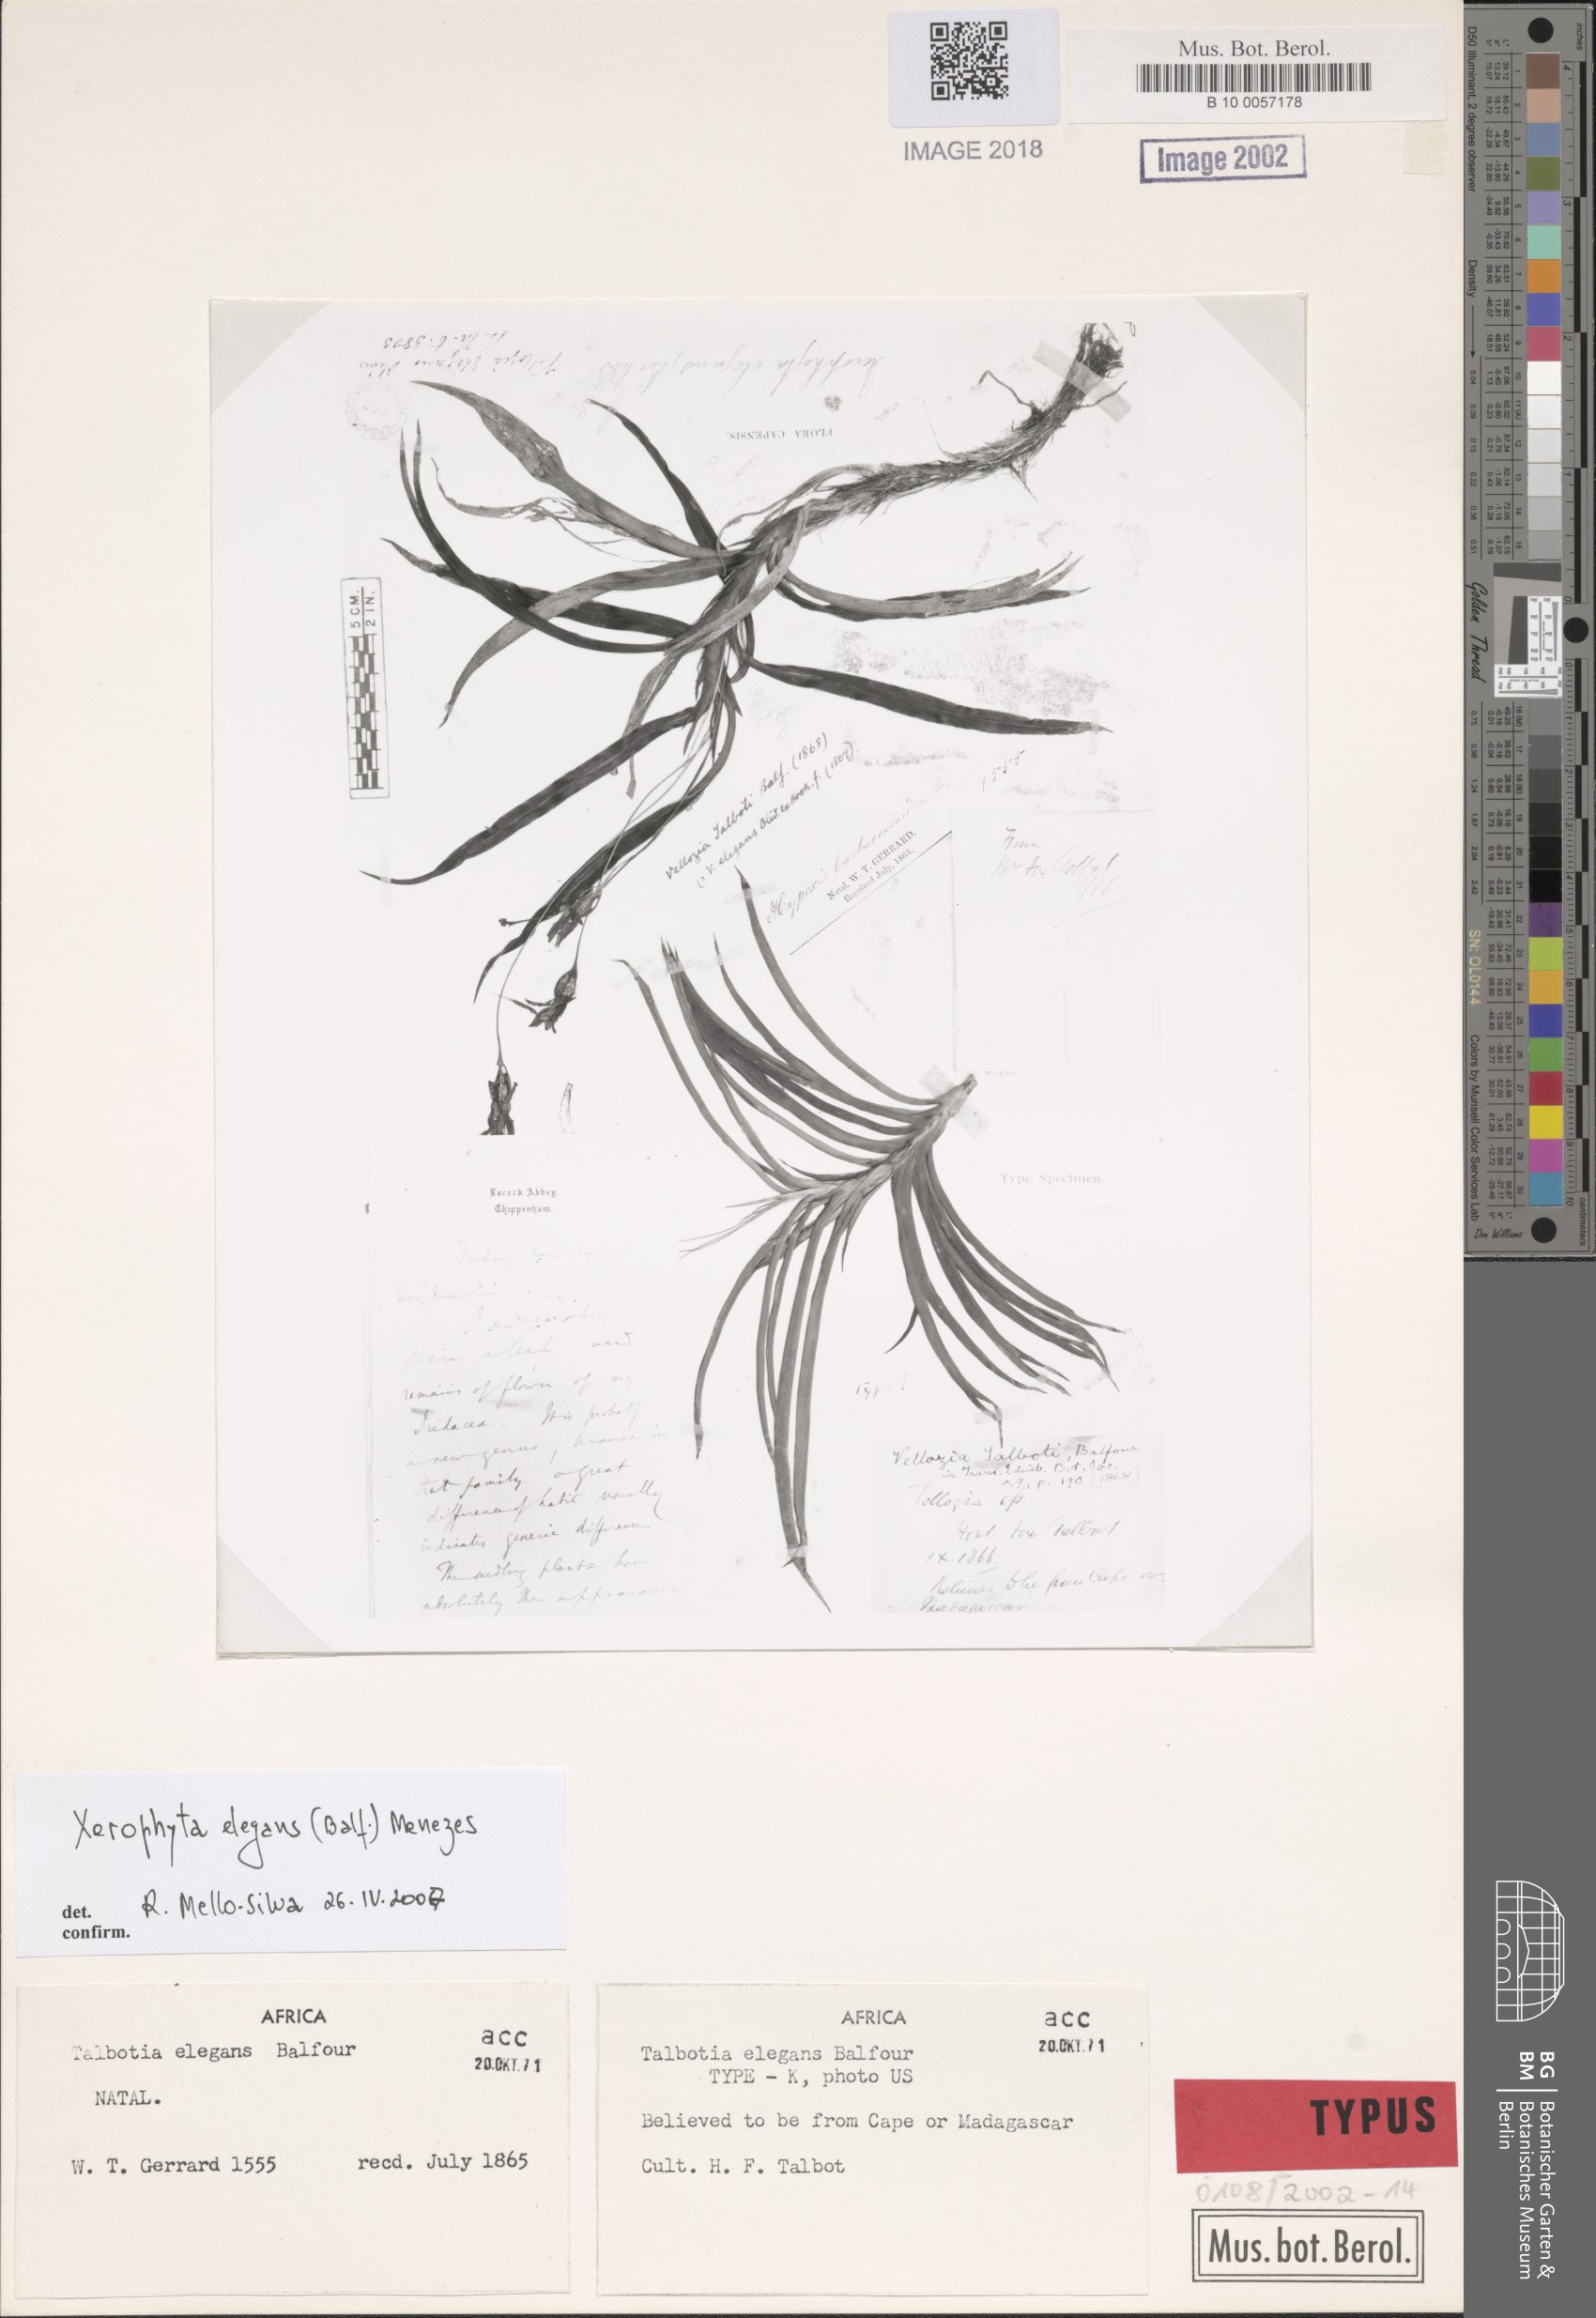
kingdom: Plantae
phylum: Tracheophyta
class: Liliopsida
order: Pandanales
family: Velloziaceae
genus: Xerophyta
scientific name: Xerophyta elegans
